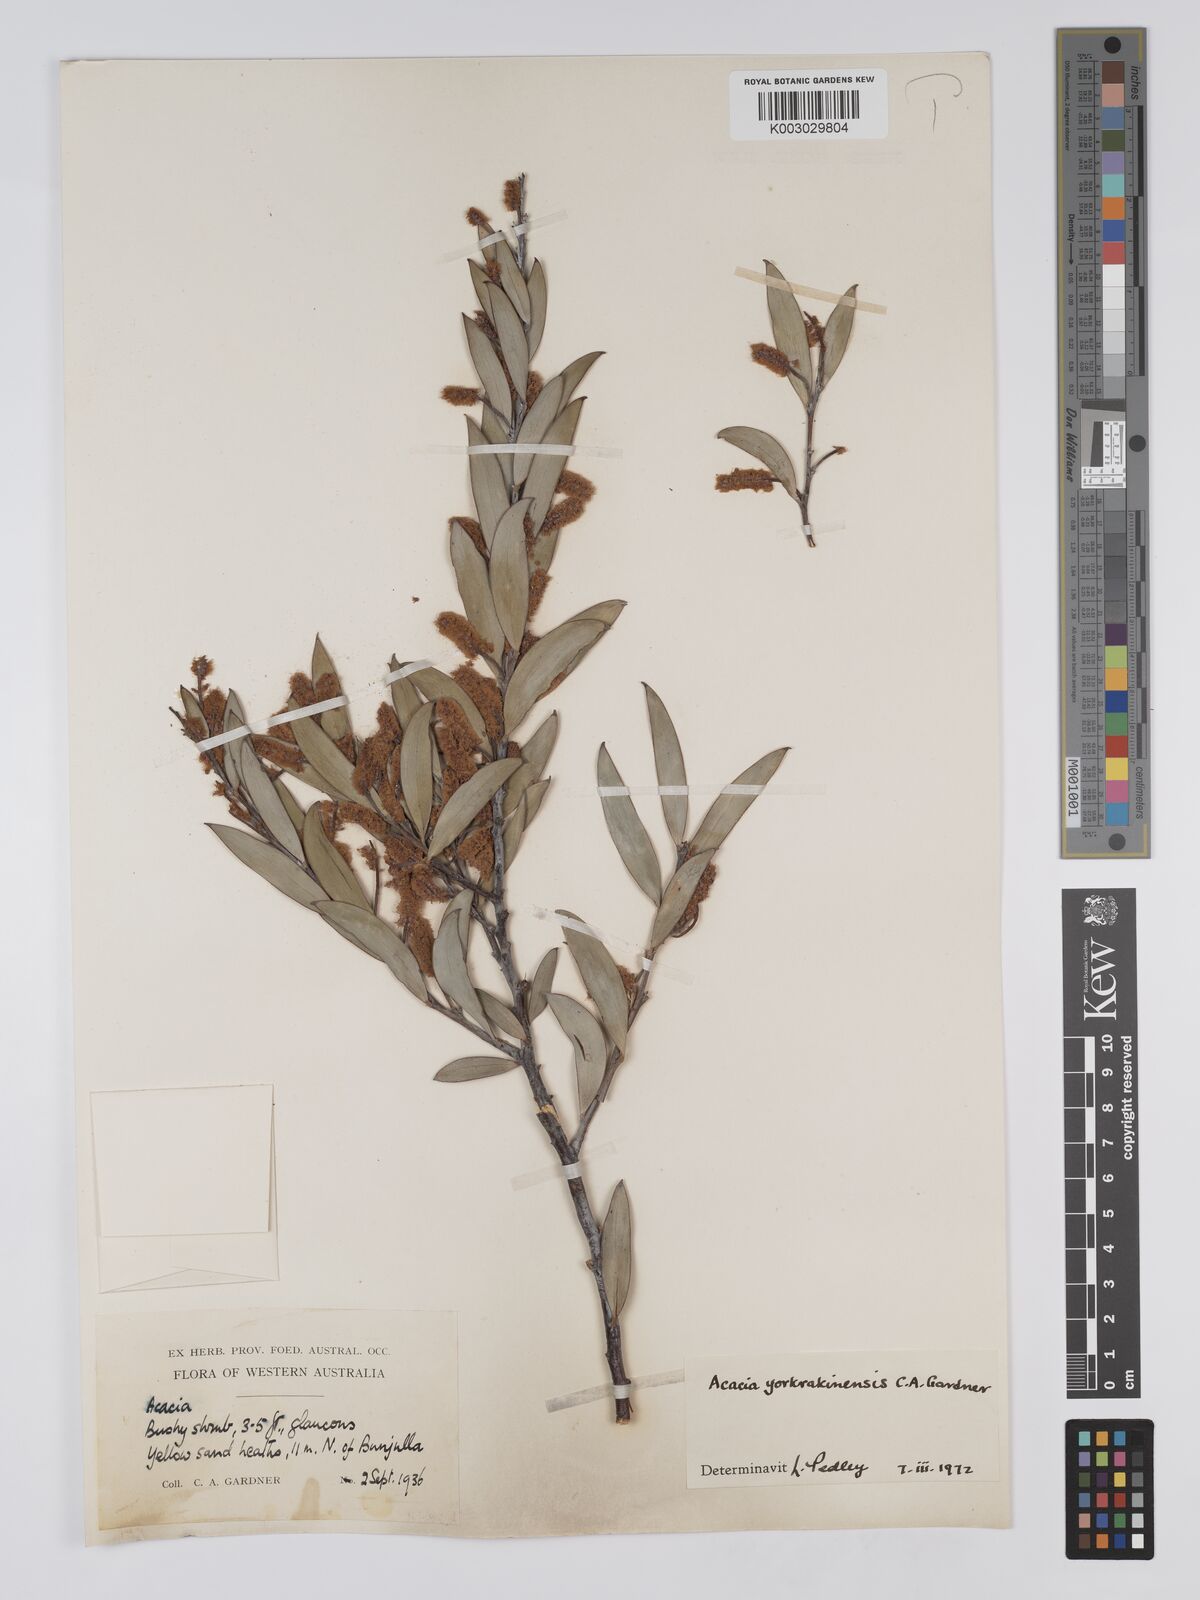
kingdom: Plantae
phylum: Tracheophyta
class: Magnoliopsida
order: Fabales
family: Fabaceae
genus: Acacia
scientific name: Acacia yorkrakinensis
